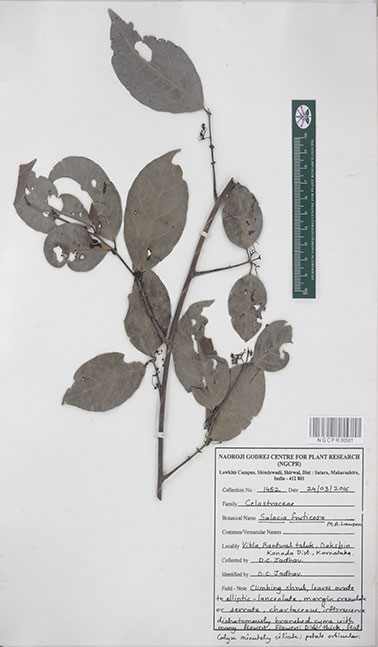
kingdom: Plantae
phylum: Tracheophyta
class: Magnoliopsida
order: Celastrales
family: Celastraceae
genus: Salacia
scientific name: Salacia fruticosa
